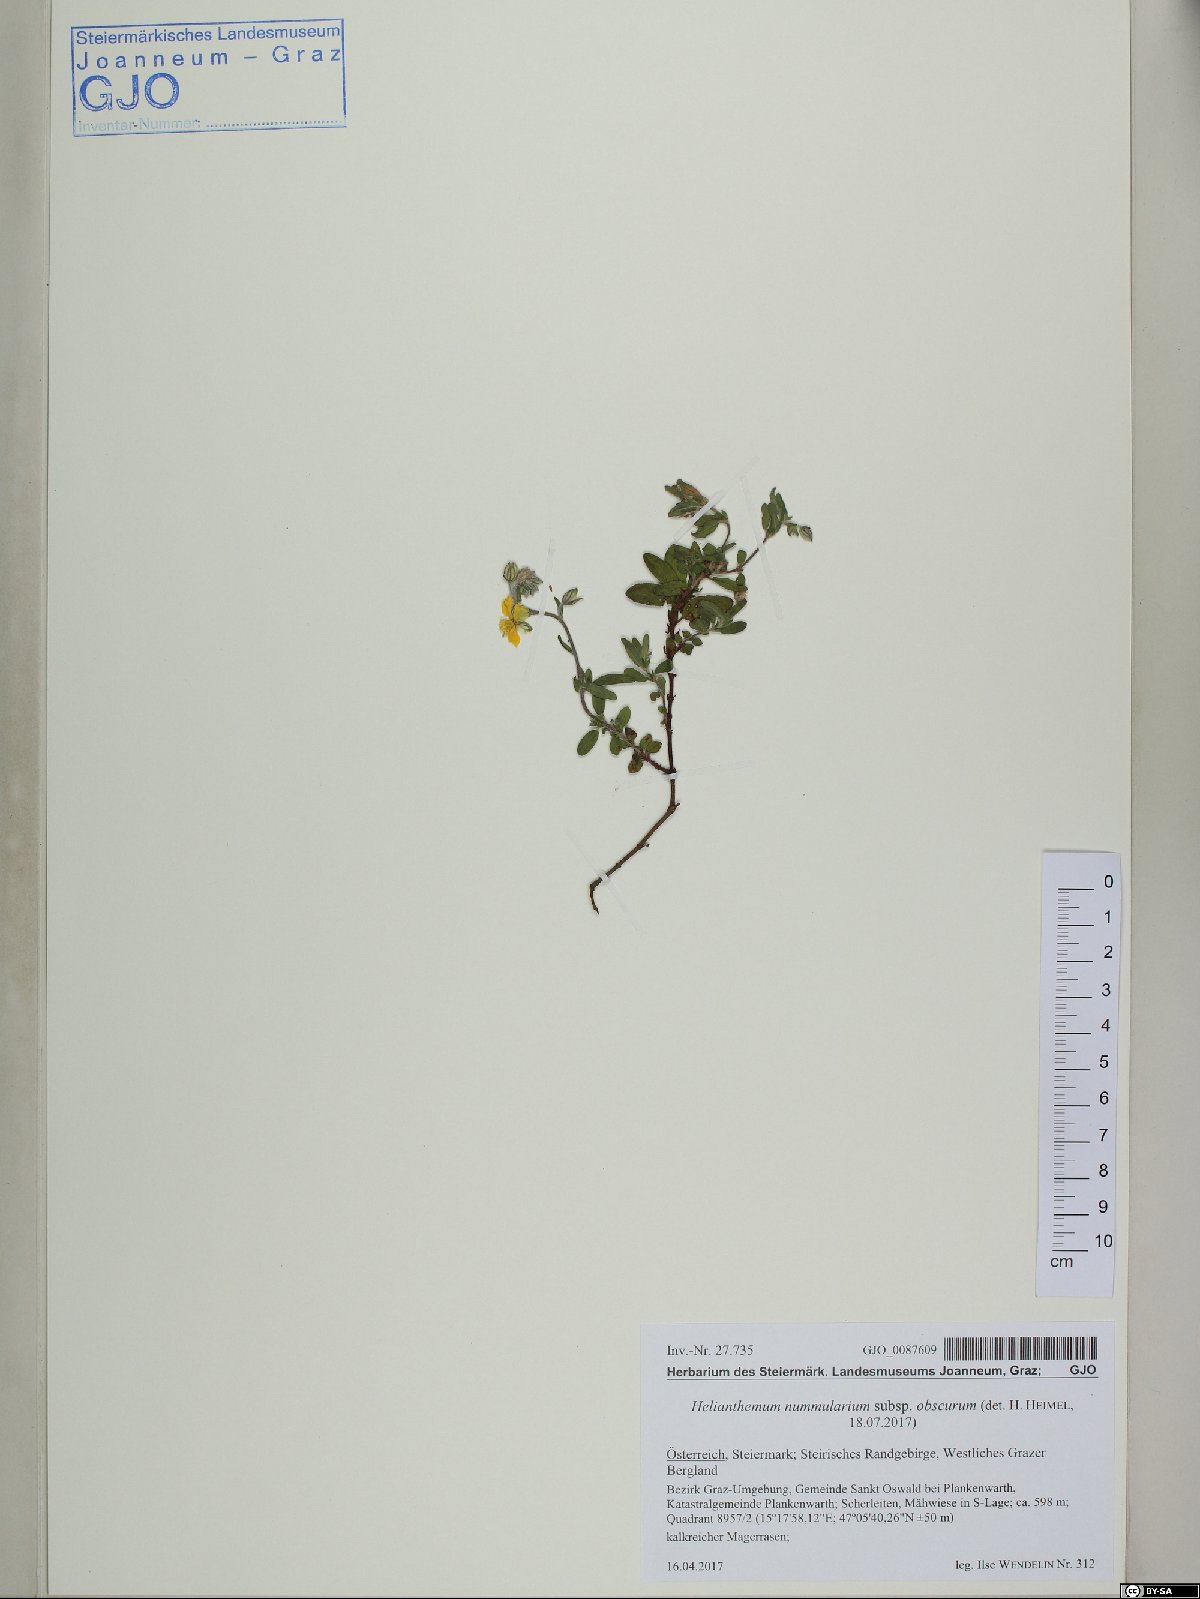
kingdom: Plantae
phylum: Tracheophyta
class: Magnoliopsida
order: Malvales
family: Cistaceae
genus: Helianthemum
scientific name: Helianthemum nummularium
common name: Common rock-rose
